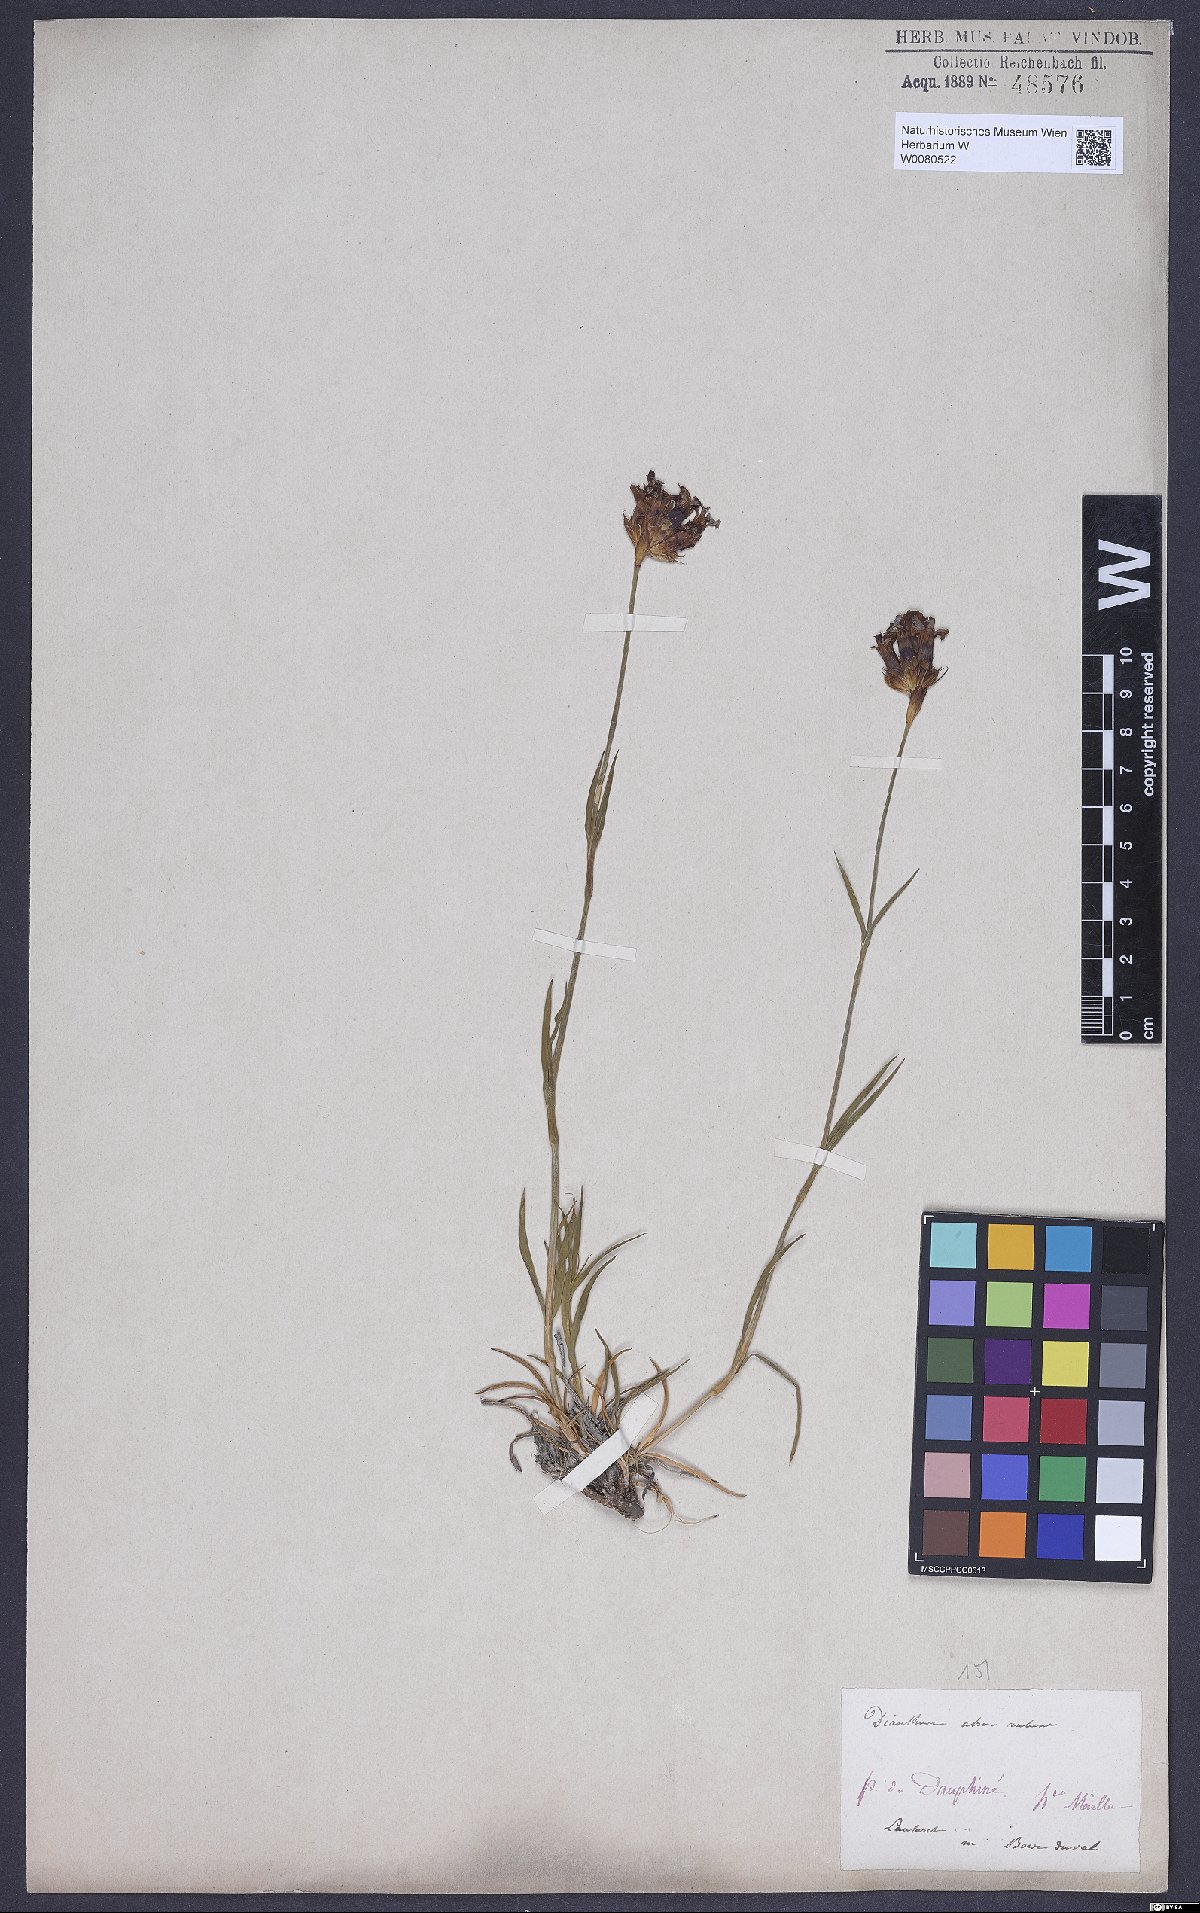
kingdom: Plantae
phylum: Tracheophyta
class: Magnoliopsida
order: Caryophyllales
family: Caryophyllaceae
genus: Dianthus
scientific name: Dianthus carthusianorum
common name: Carthusian pink
